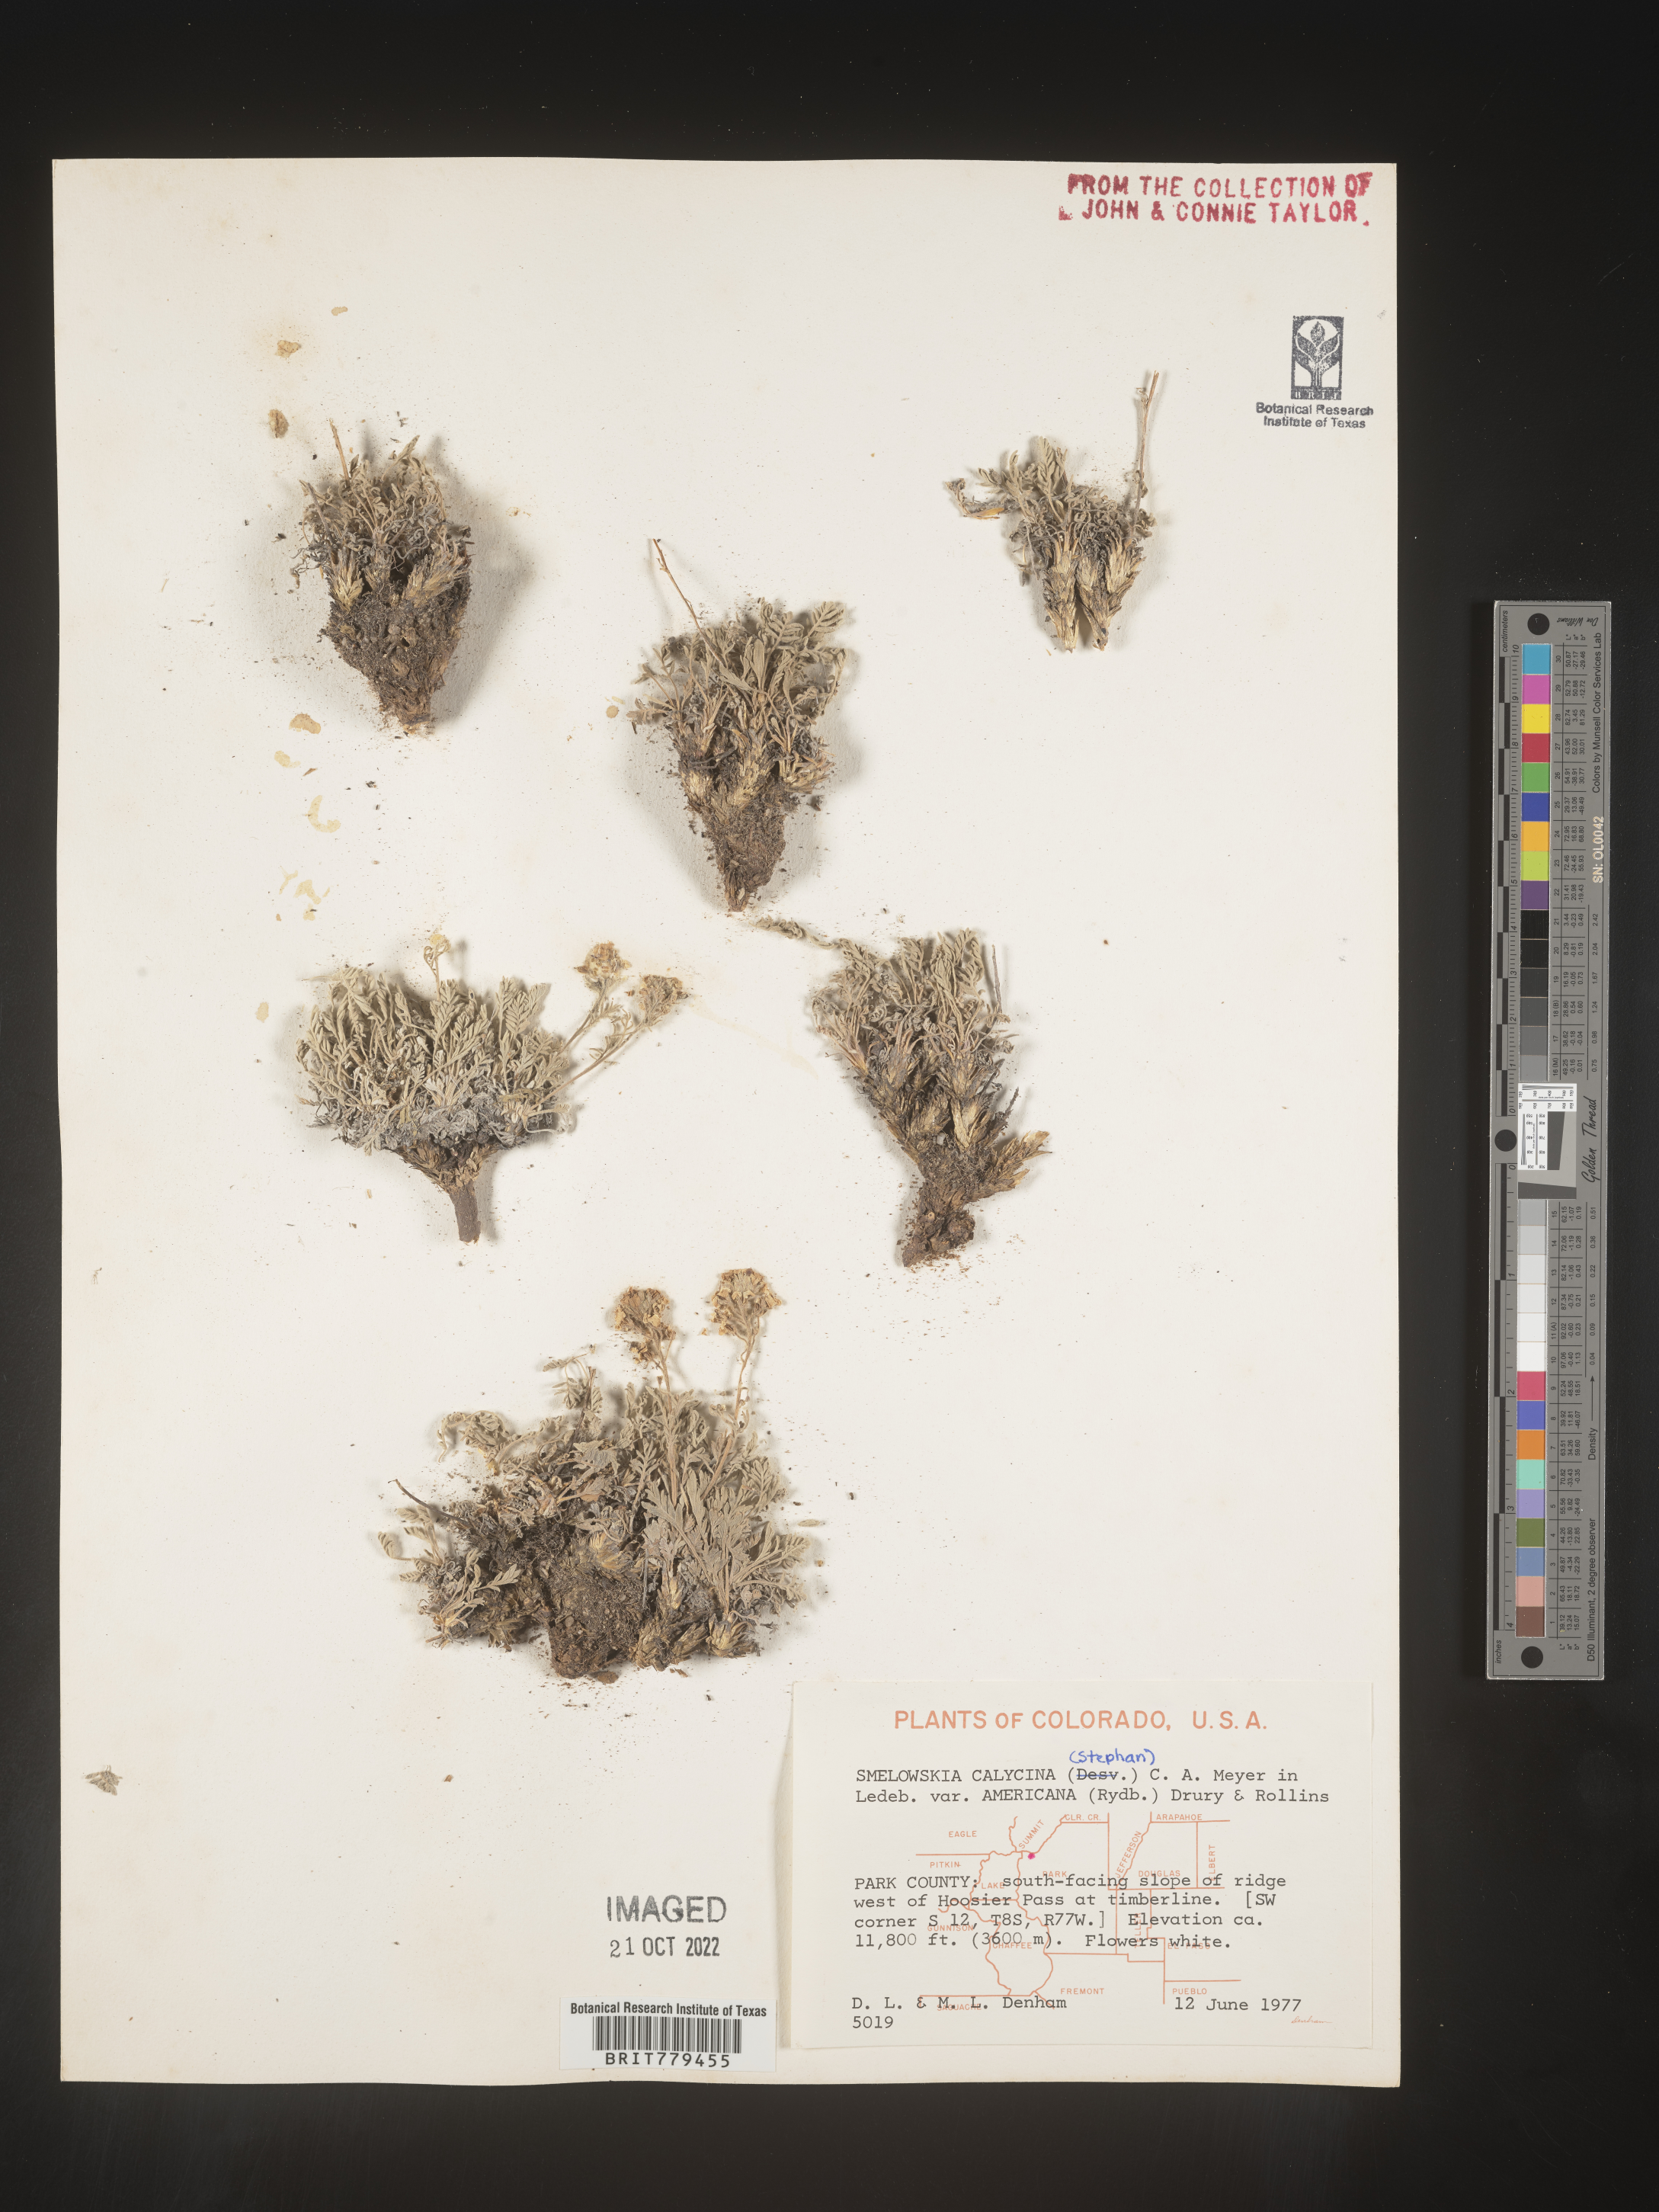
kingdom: Plantae
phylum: Tracheophyta
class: Magnoliopsida
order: Brassicales
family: Brassicaceae
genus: Smelowskia
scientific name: Smelowskia
